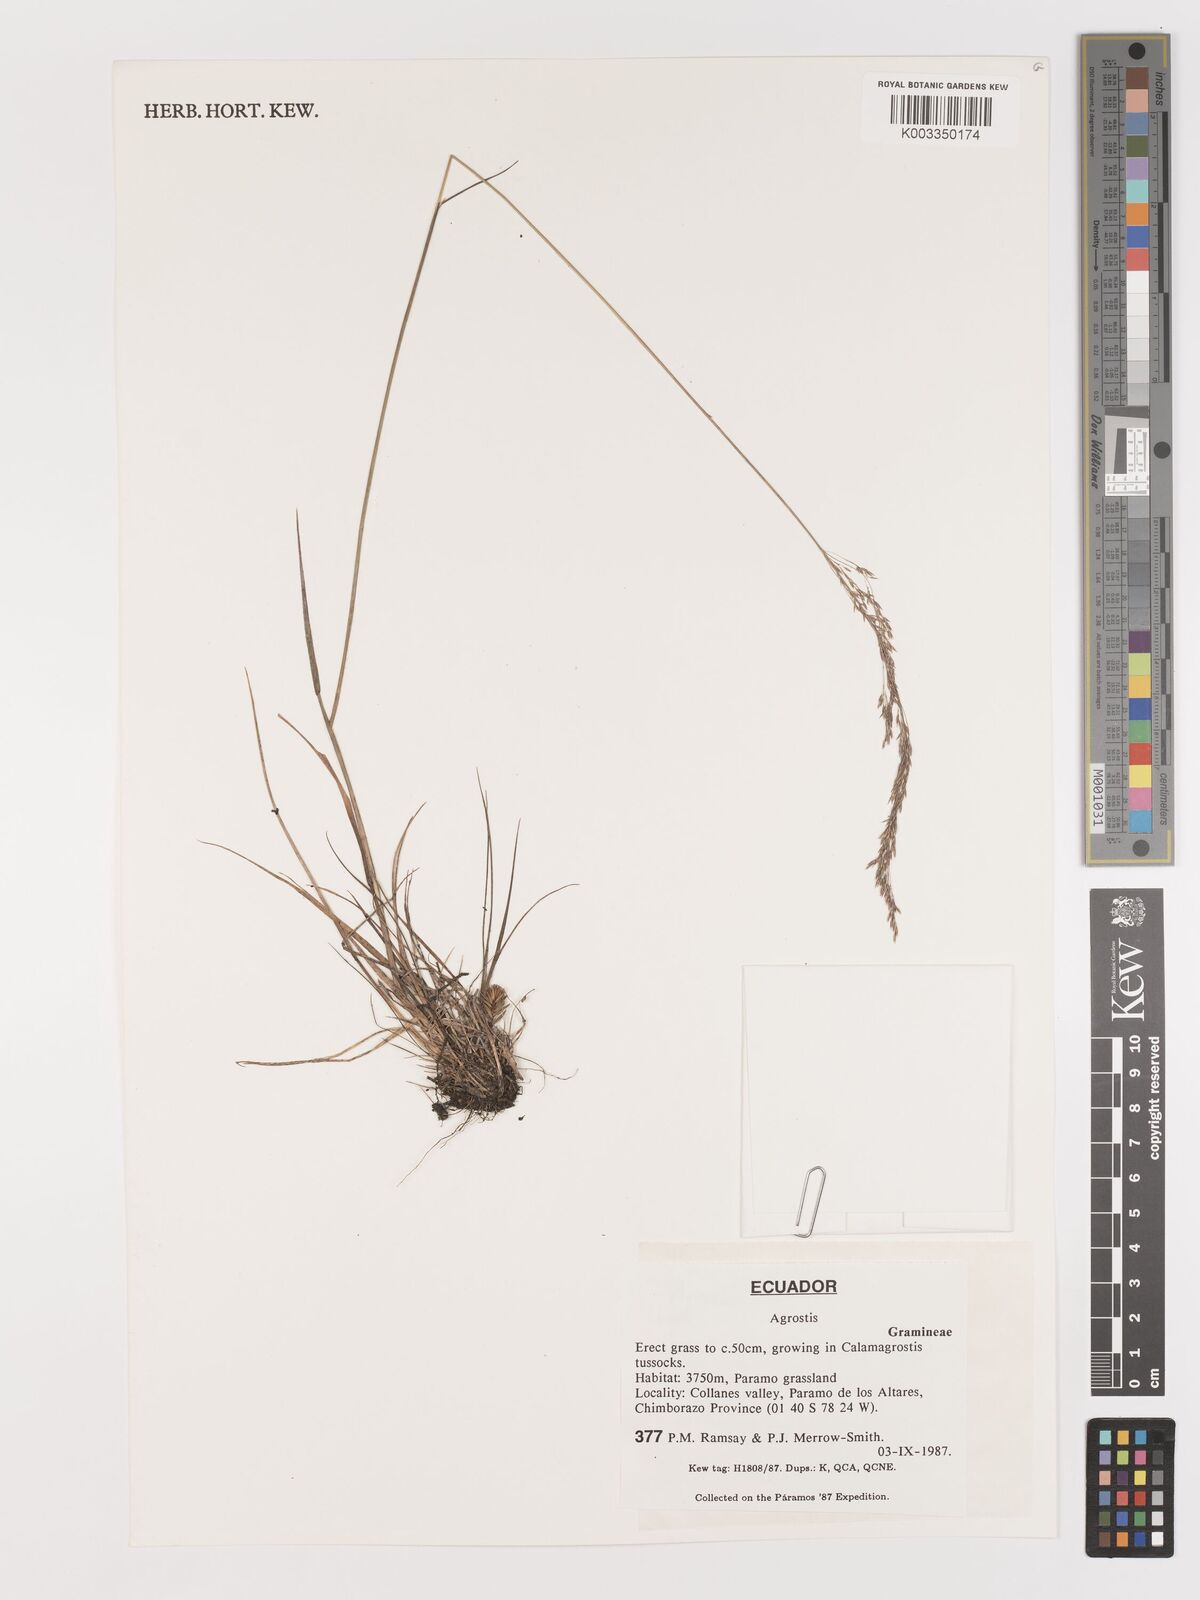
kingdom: Plantae
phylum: Tracheophyta
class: Liliopsida
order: Poales
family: Poaceae
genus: Agrostis
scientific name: Agrostis
